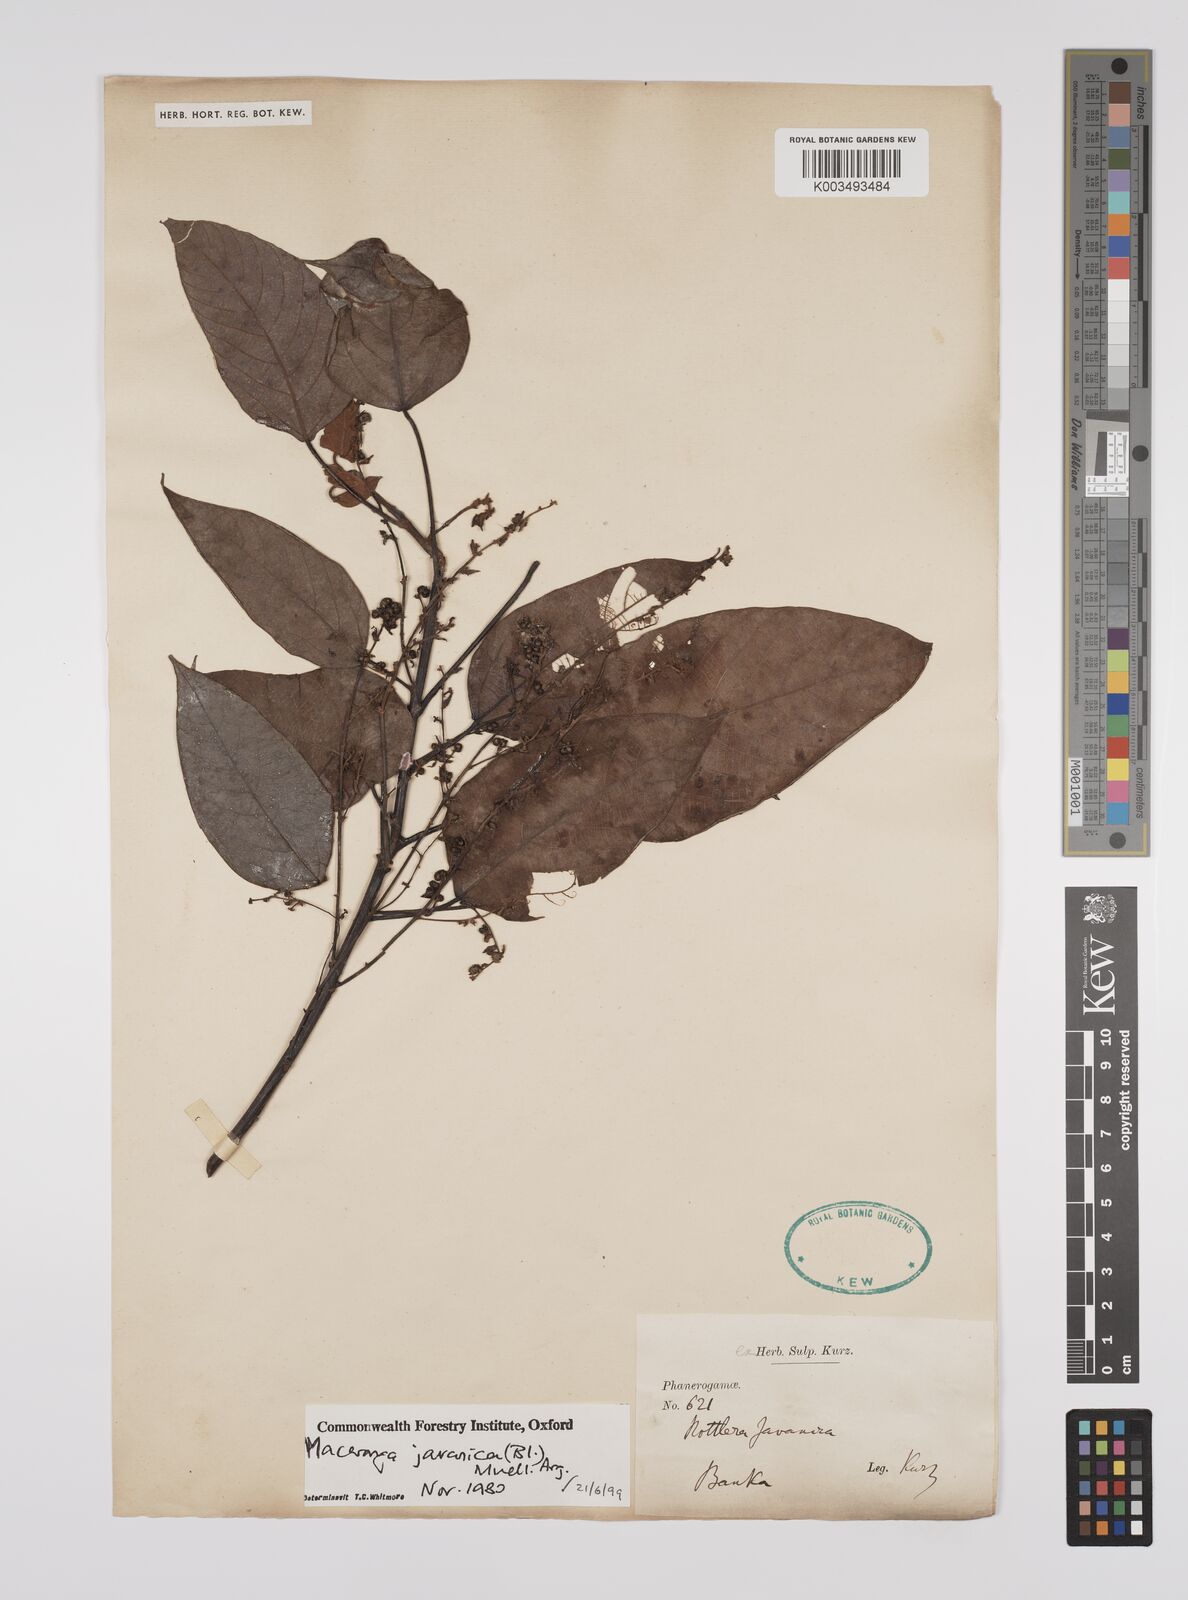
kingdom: Plantae
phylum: Tracheophyta
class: Magnoliopsida
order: Malpighiales
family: Euphorbiaceae
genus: Macaranga
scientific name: Macaranga javanica
